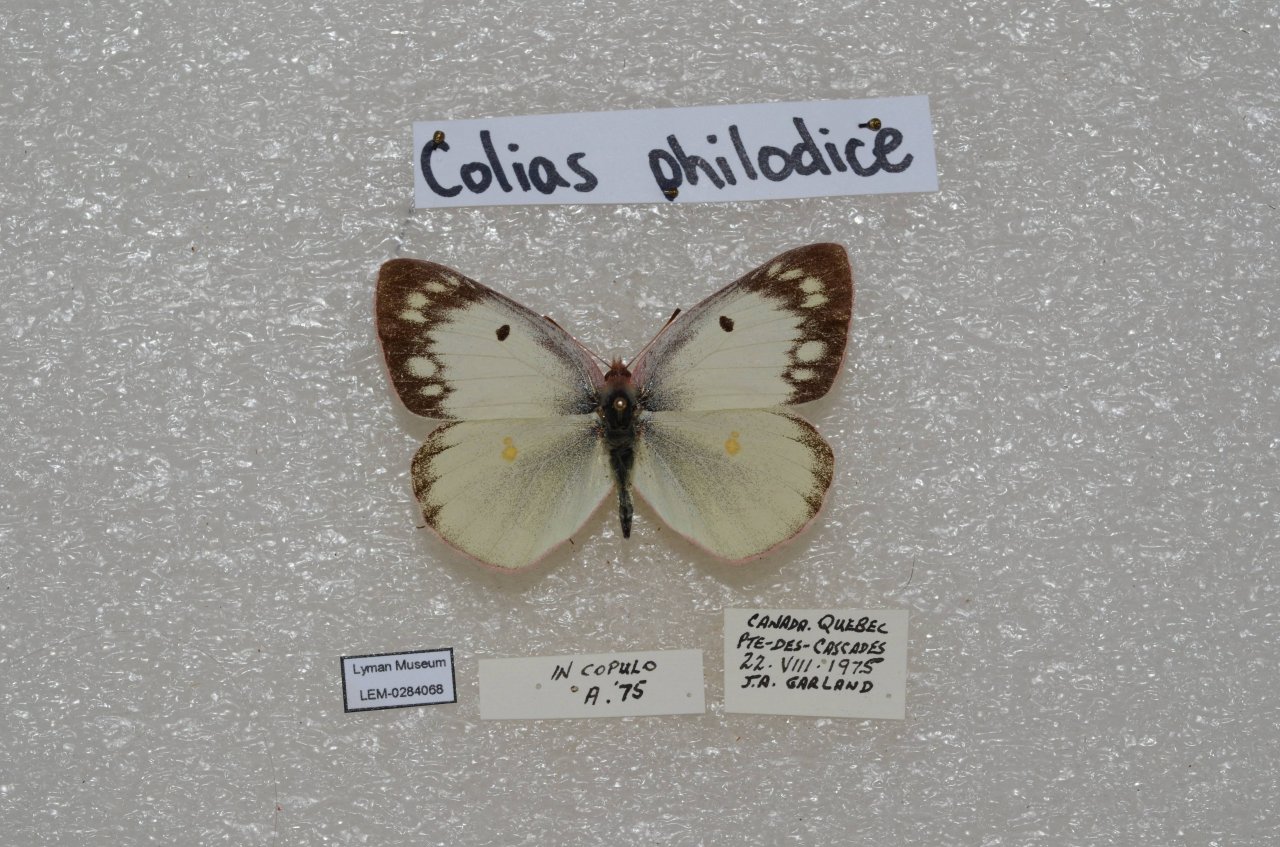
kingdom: Animalia
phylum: Arthropoda
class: Insecta
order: Lepidoptera
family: Pieridae
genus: Colias
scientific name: Colias philodice
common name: Clouded Sulphur
